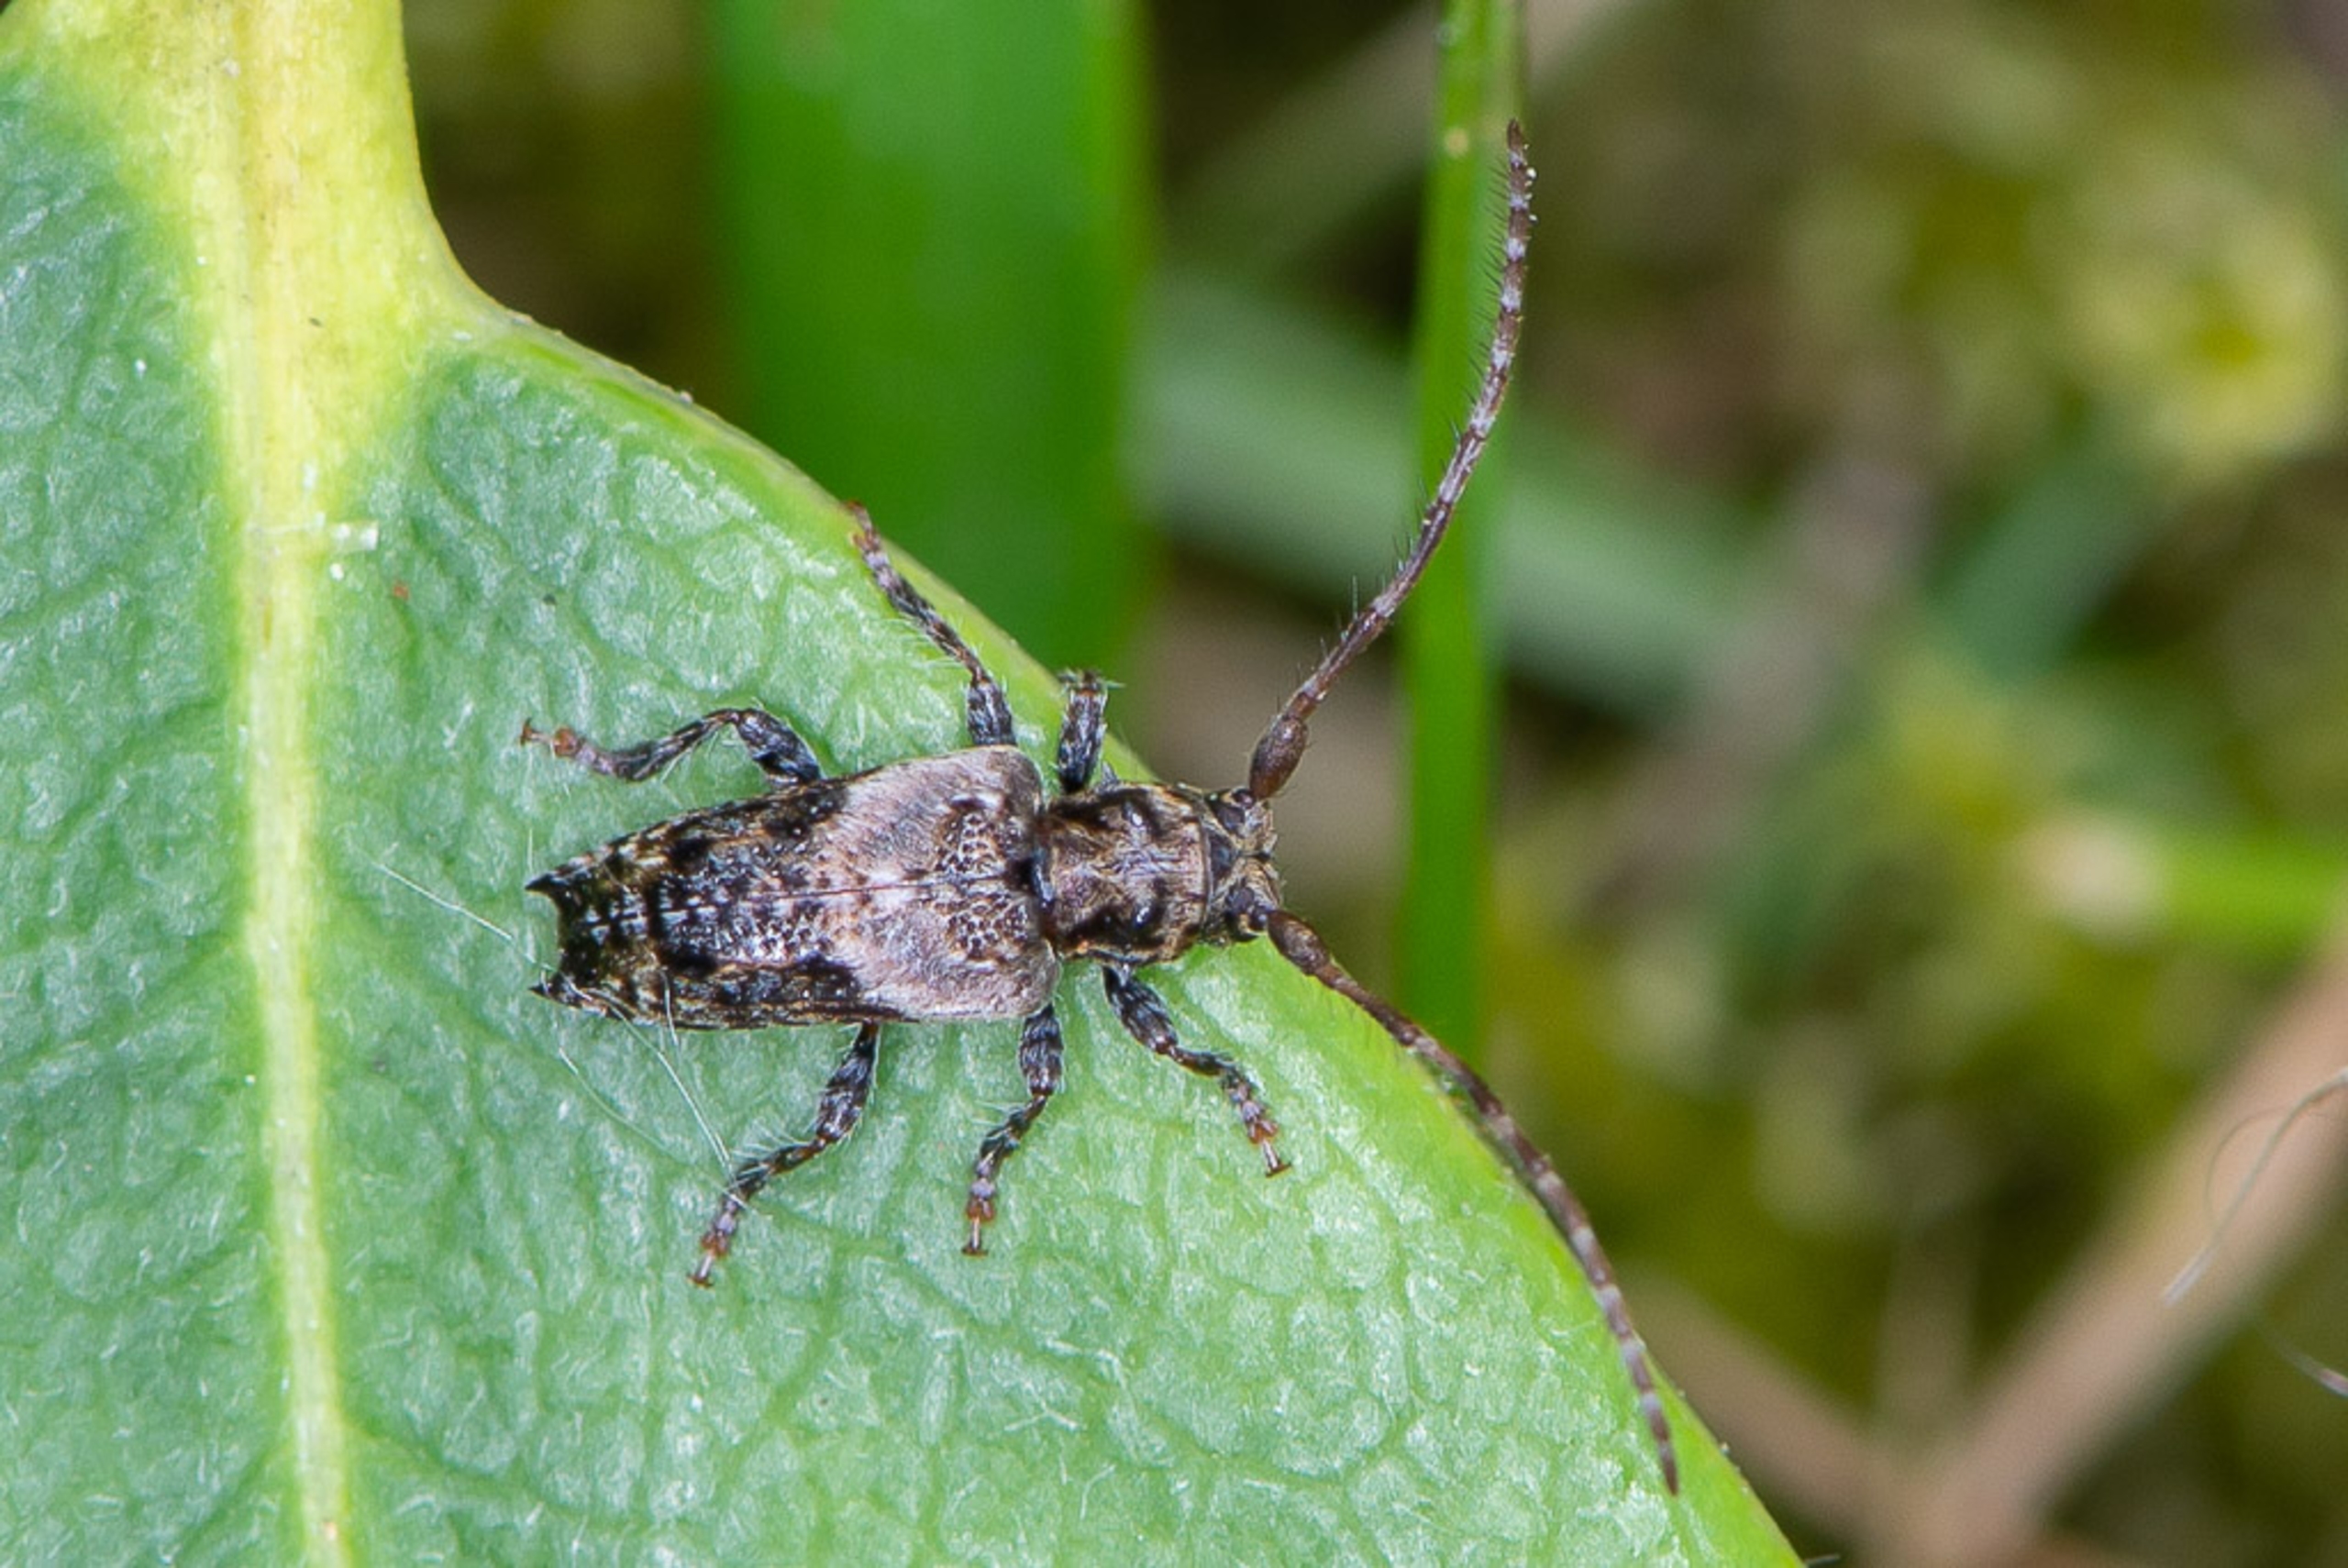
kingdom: Animalia
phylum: Arthropoda
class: Insecta
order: Coleoptera
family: Cerambycidae
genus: Pogonocherus
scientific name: Pogonocherus hispidus
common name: Løvgråbuk
